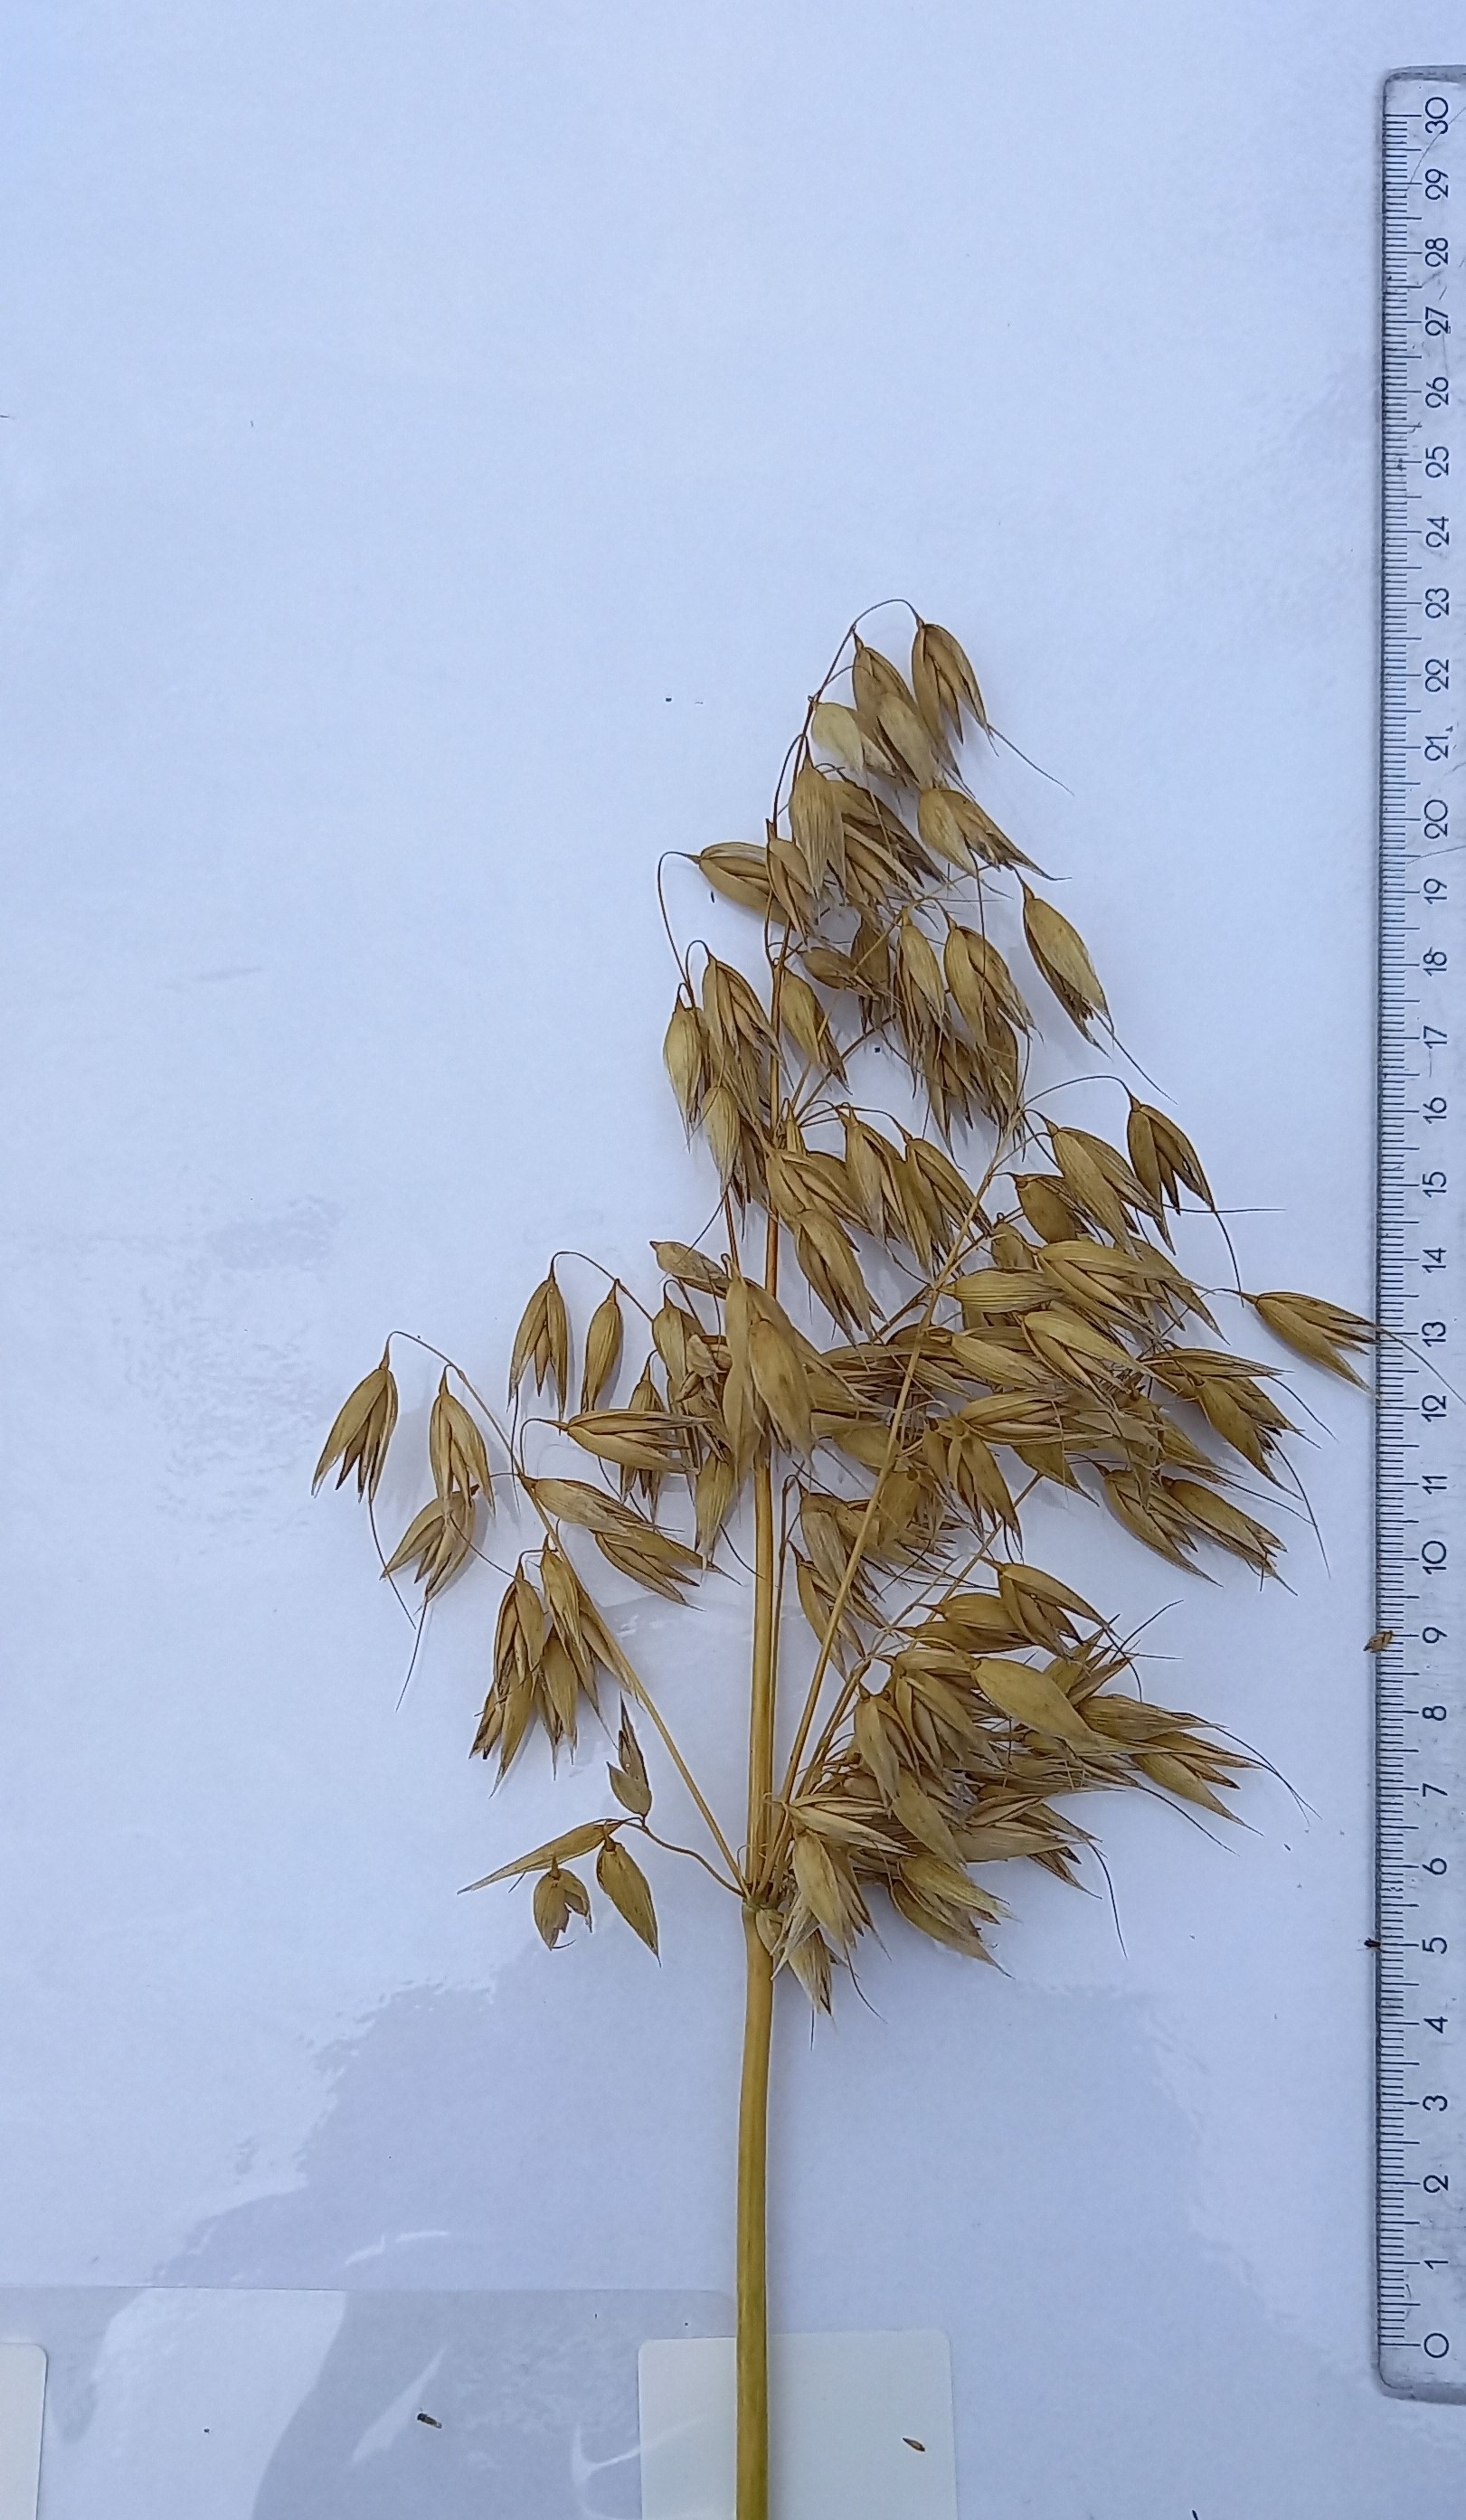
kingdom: Plantae
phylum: Tracheophyta
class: Liliopsida
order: Poales
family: Poaceae
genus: Avena
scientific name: Avena sativa
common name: Oat
